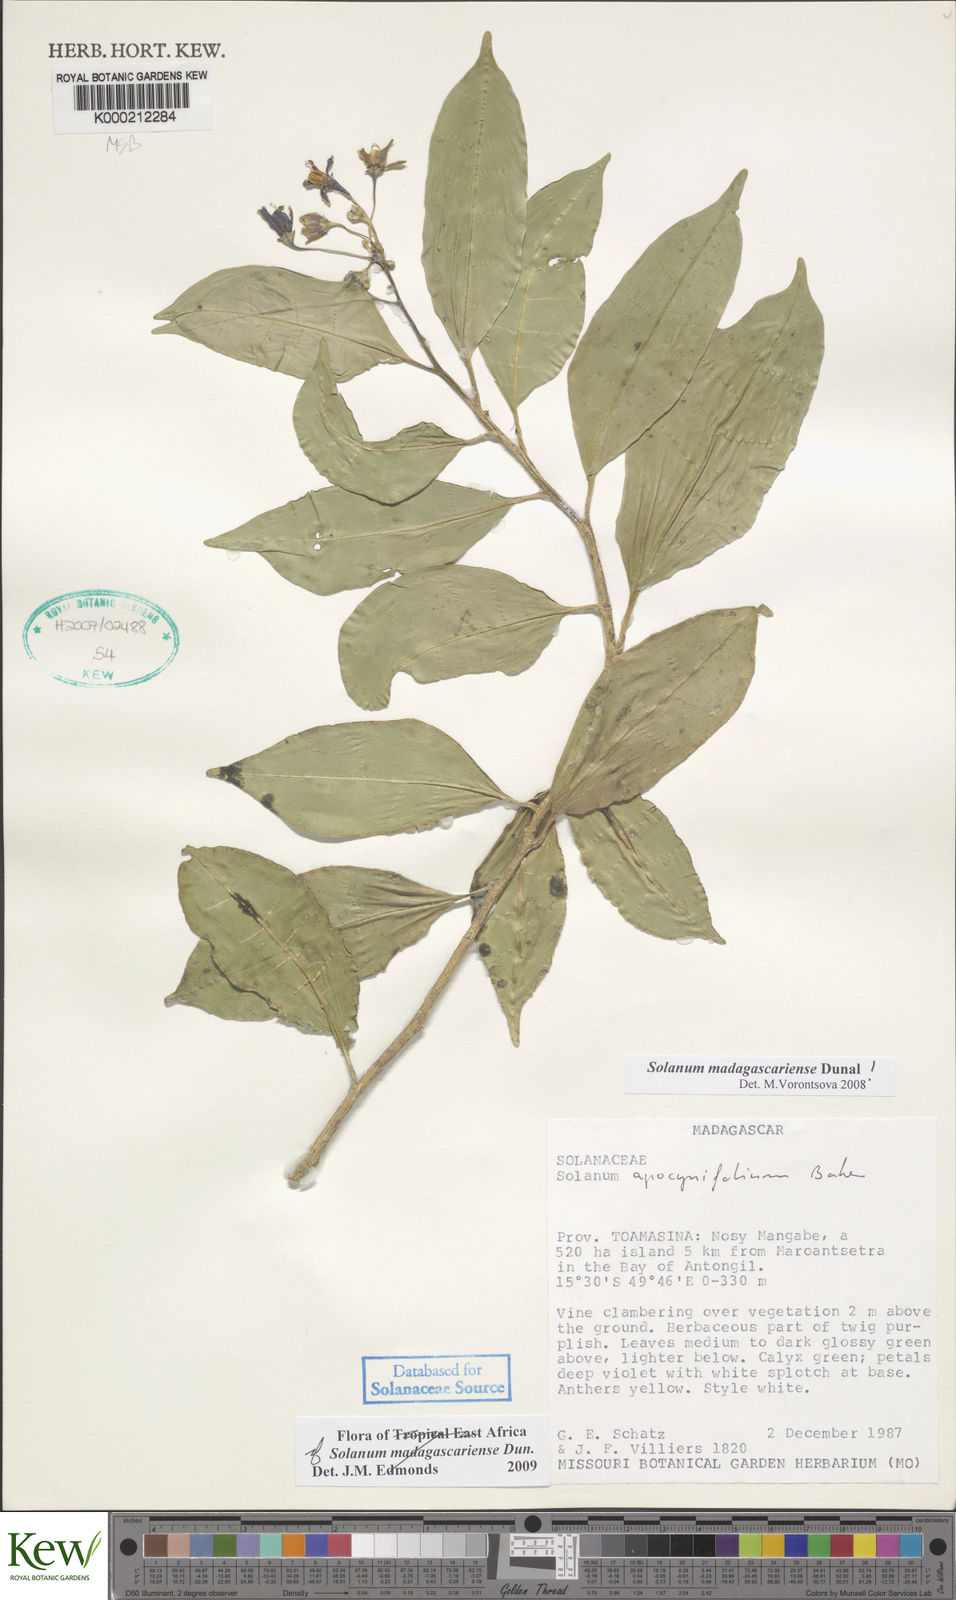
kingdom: Plantae
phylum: Tracheophyta
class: Magnoliopsida
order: Solanales
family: Solanaceae
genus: Solanum
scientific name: Solanum madagascariense
